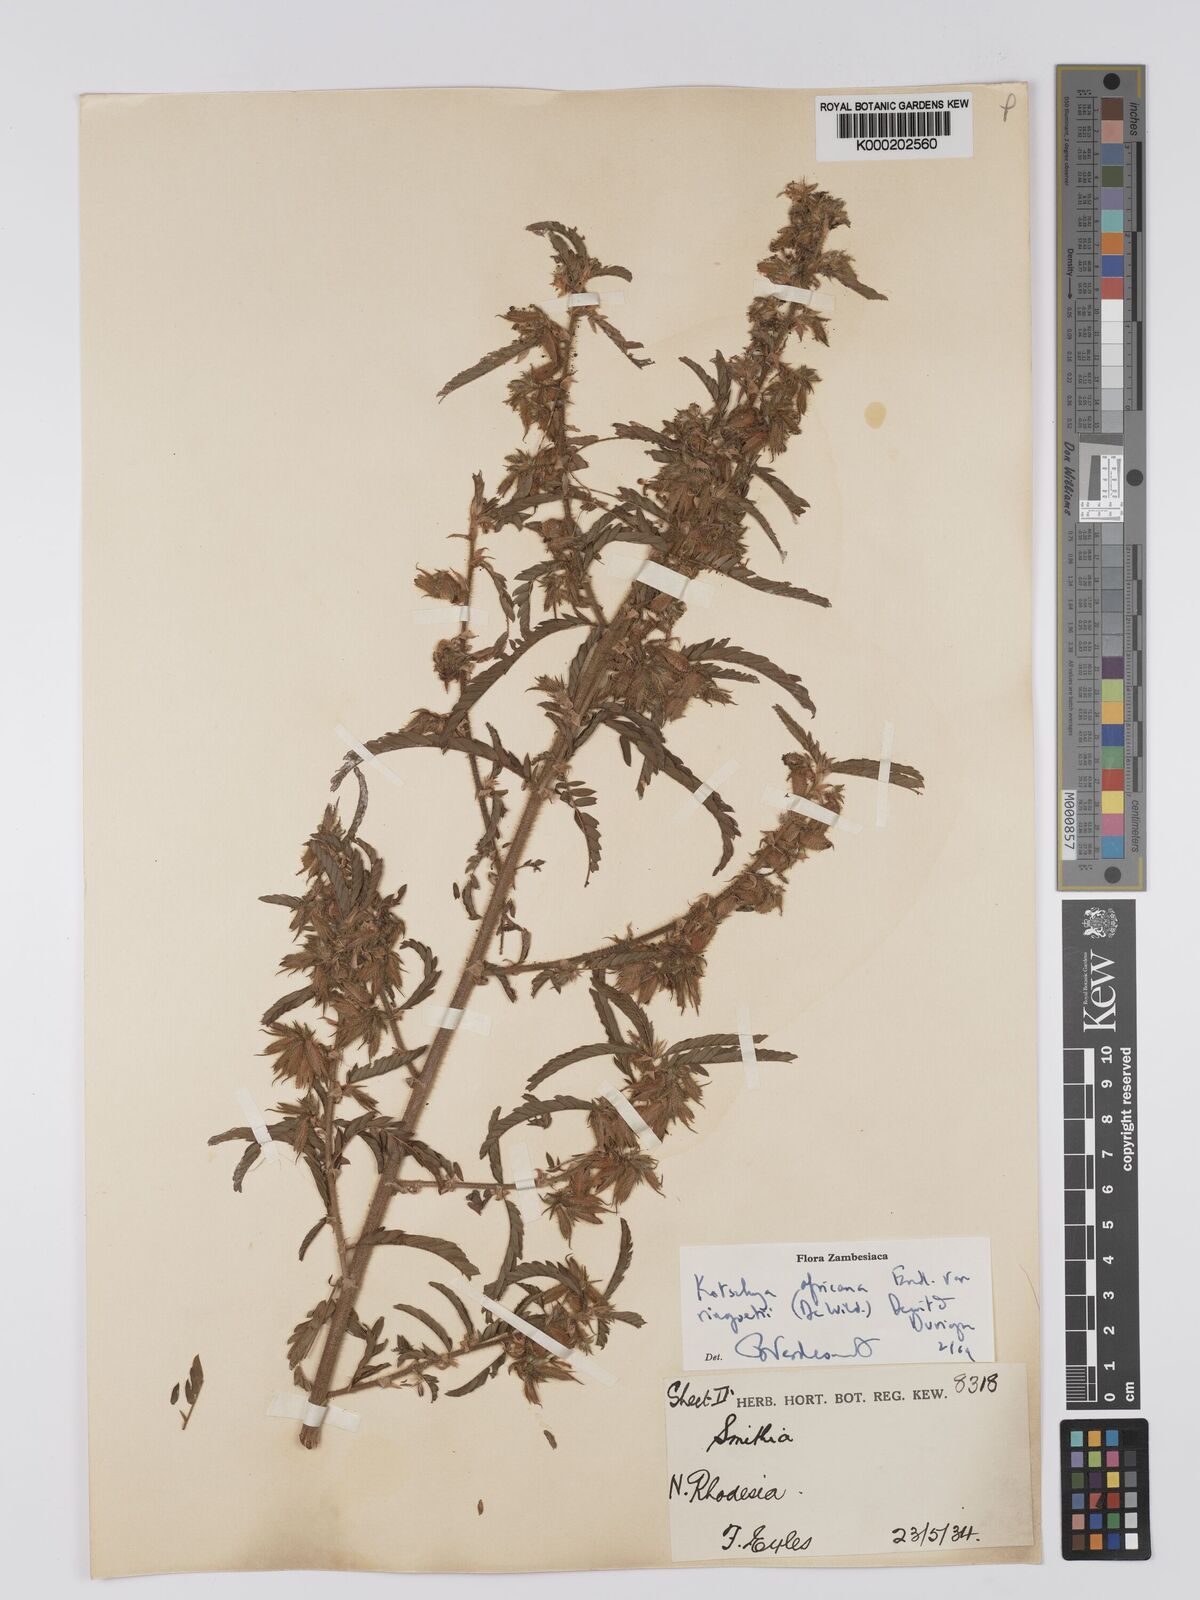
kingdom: Plantae
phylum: Tracheophyta
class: Magnoliopsida
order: Fabales
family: Fabaceae
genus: Kotschya
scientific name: Kotschya africana
